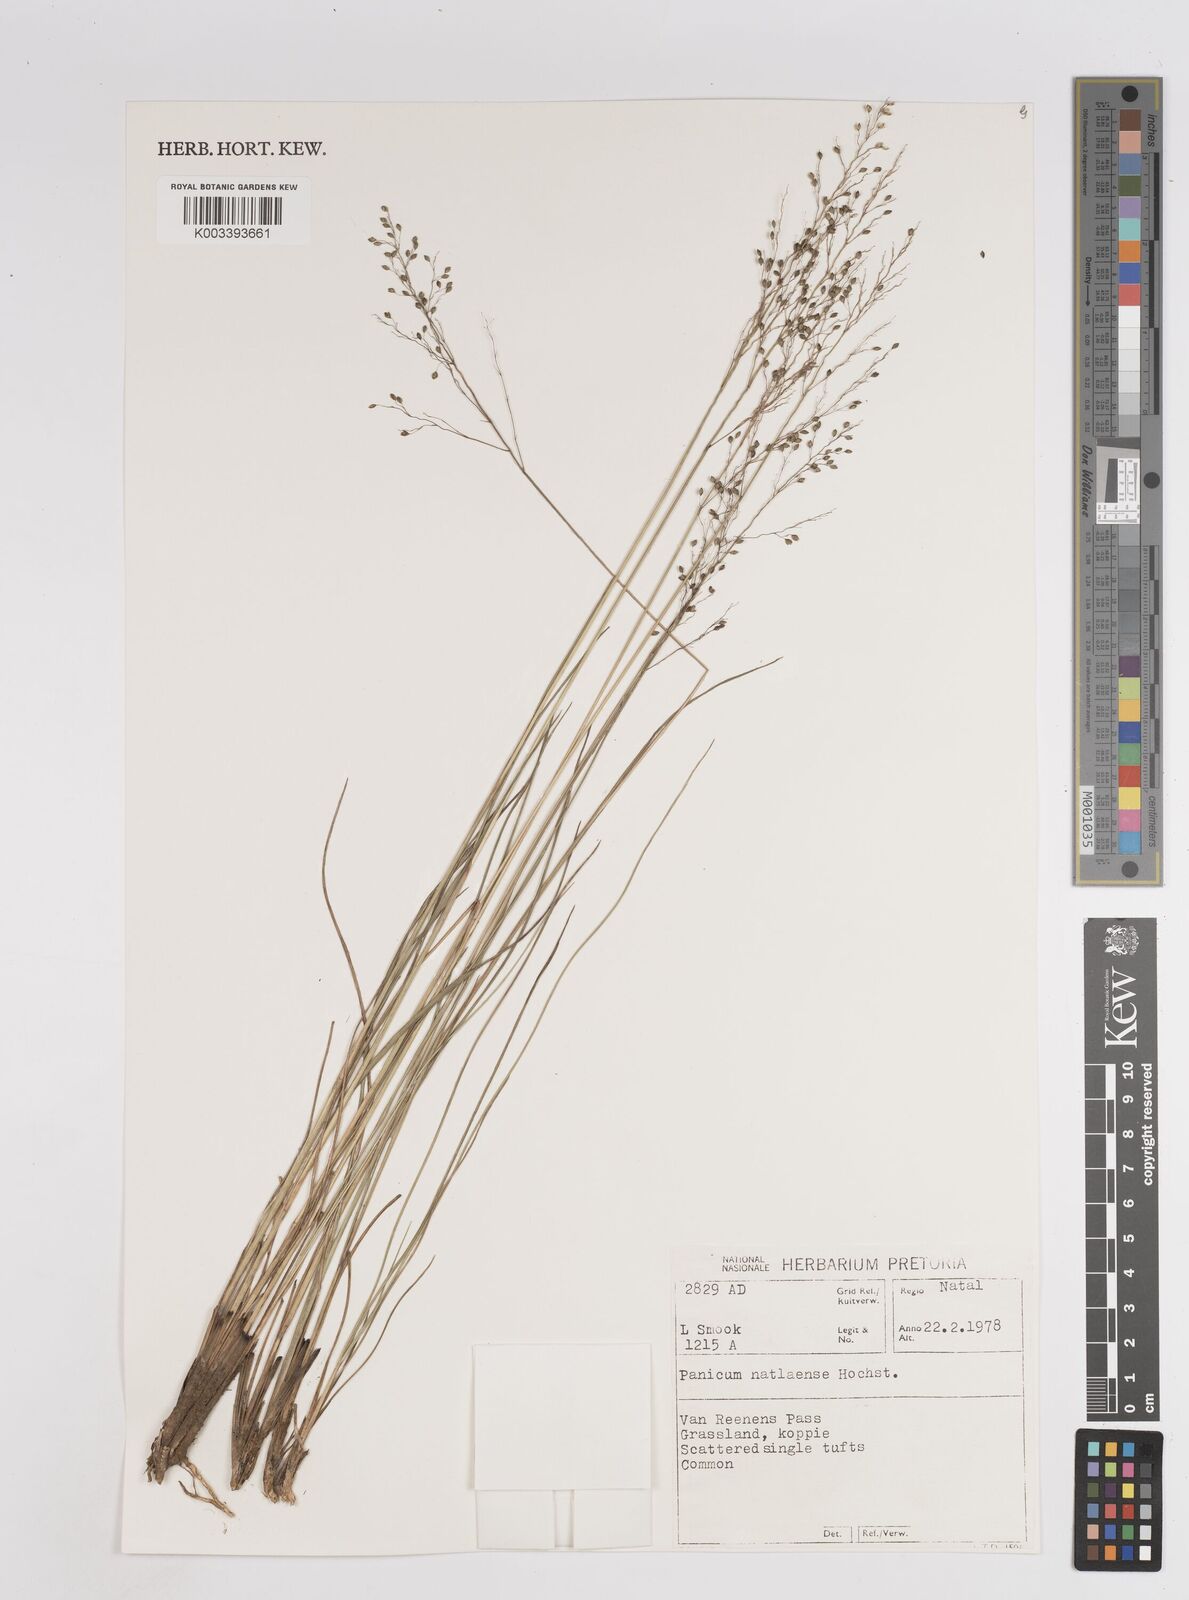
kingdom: Plantae
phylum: Tracheophyta
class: Liliopsida
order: Poales
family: Poaceae
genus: Trichanthecium
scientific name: Trichanthecium natalense
